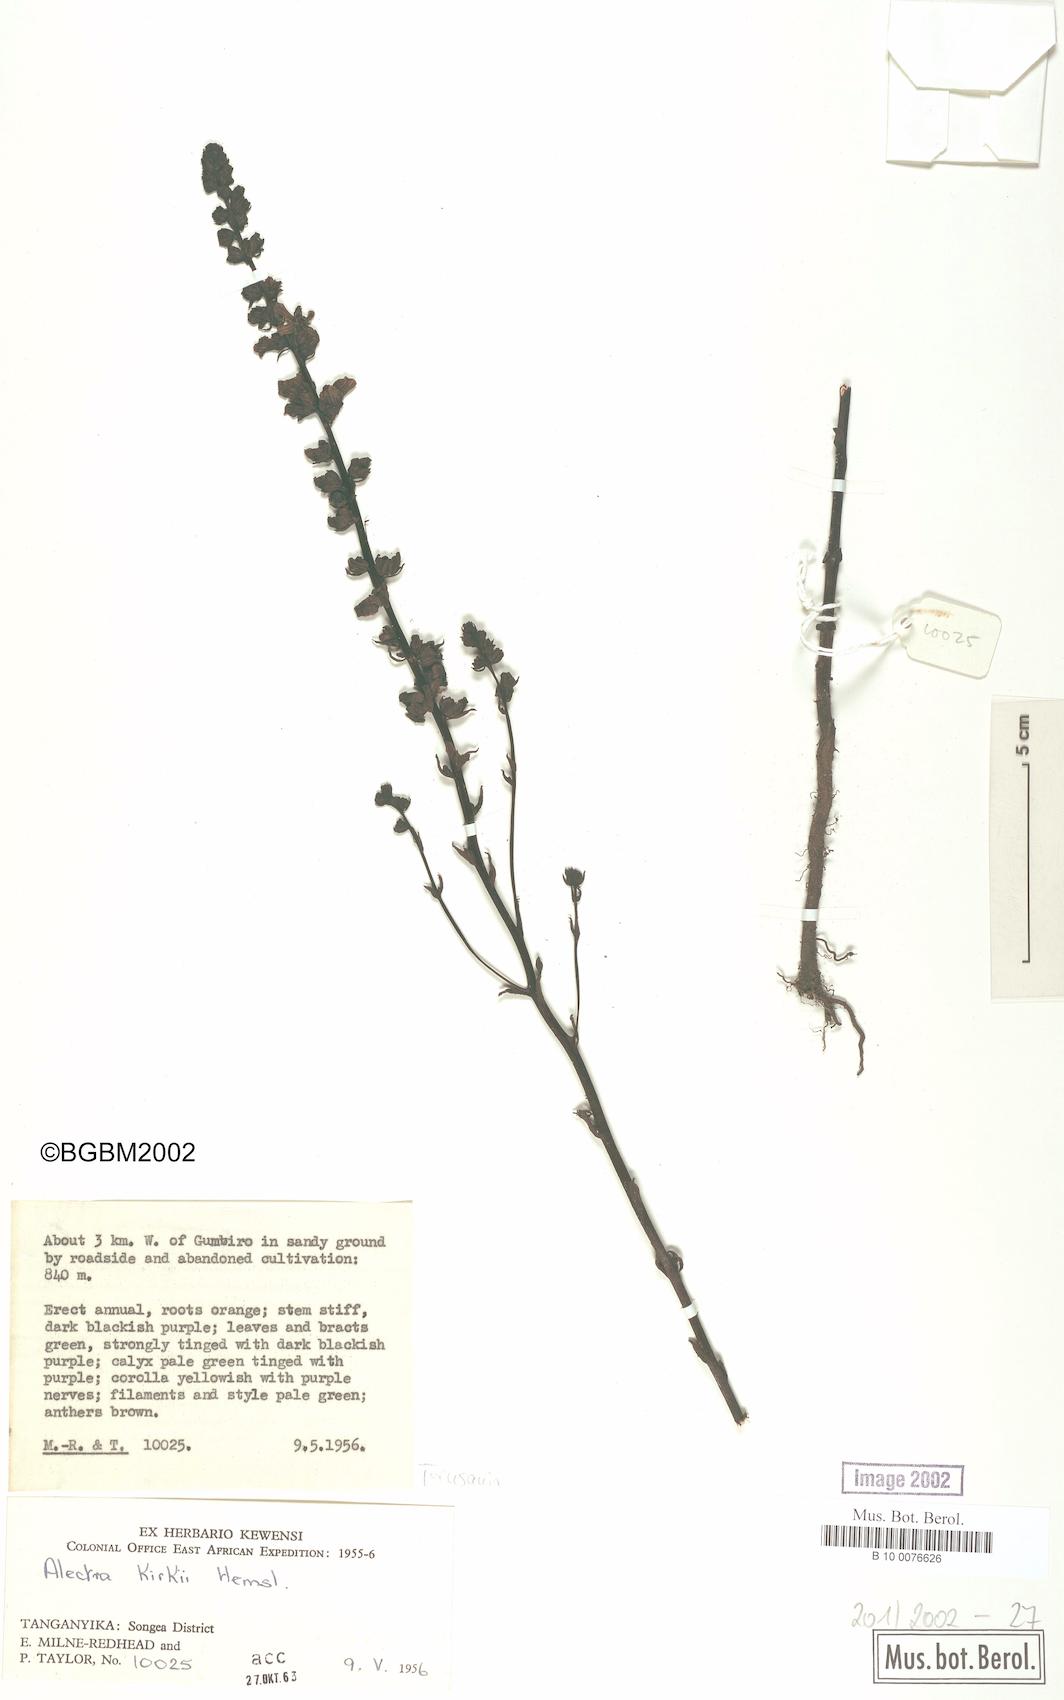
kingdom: Plantae
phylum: Tracheophyta
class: Magnoliopsida
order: Lamiales
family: Orobanchaceae
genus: Alectra
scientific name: Alectra orobanchoides
